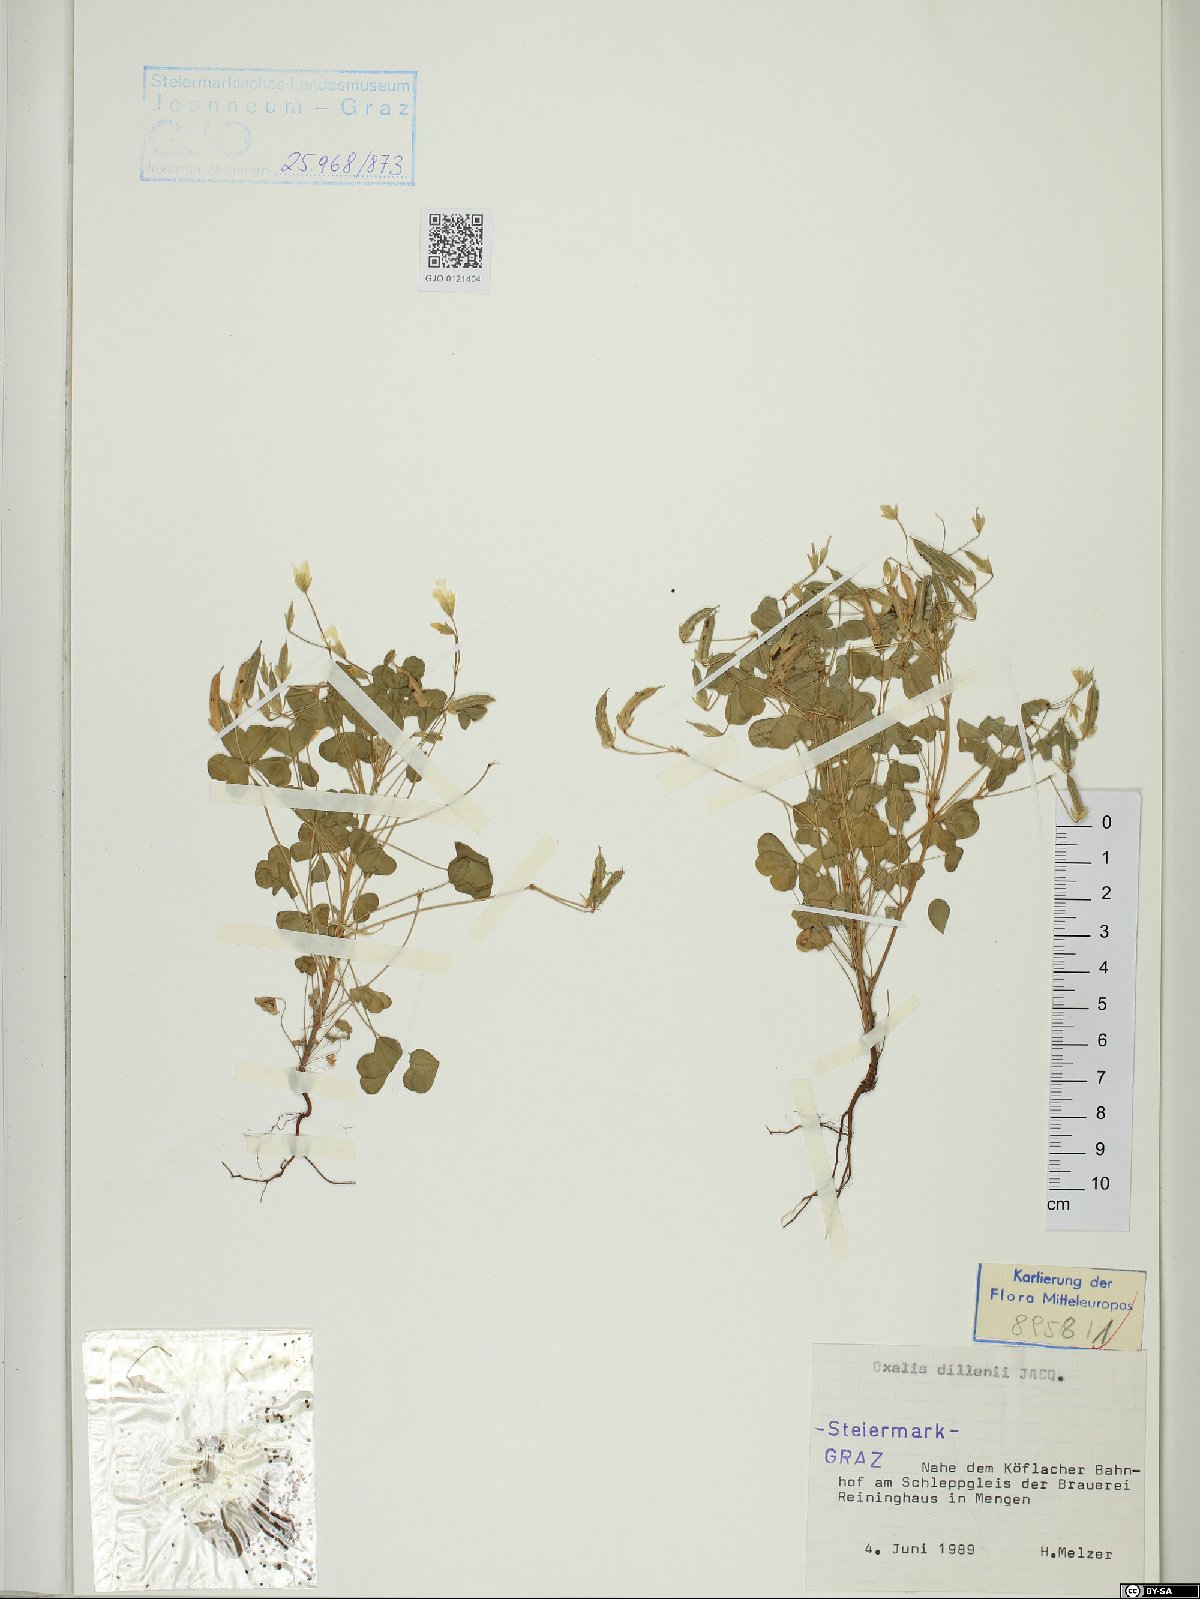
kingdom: Plantae
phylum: Tracheophyta
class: Magnoliopsida
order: Oxalidales
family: Oxalidaceae
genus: Oxalis
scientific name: Oxalis dillenii
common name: Sussex yellow-sorrel
